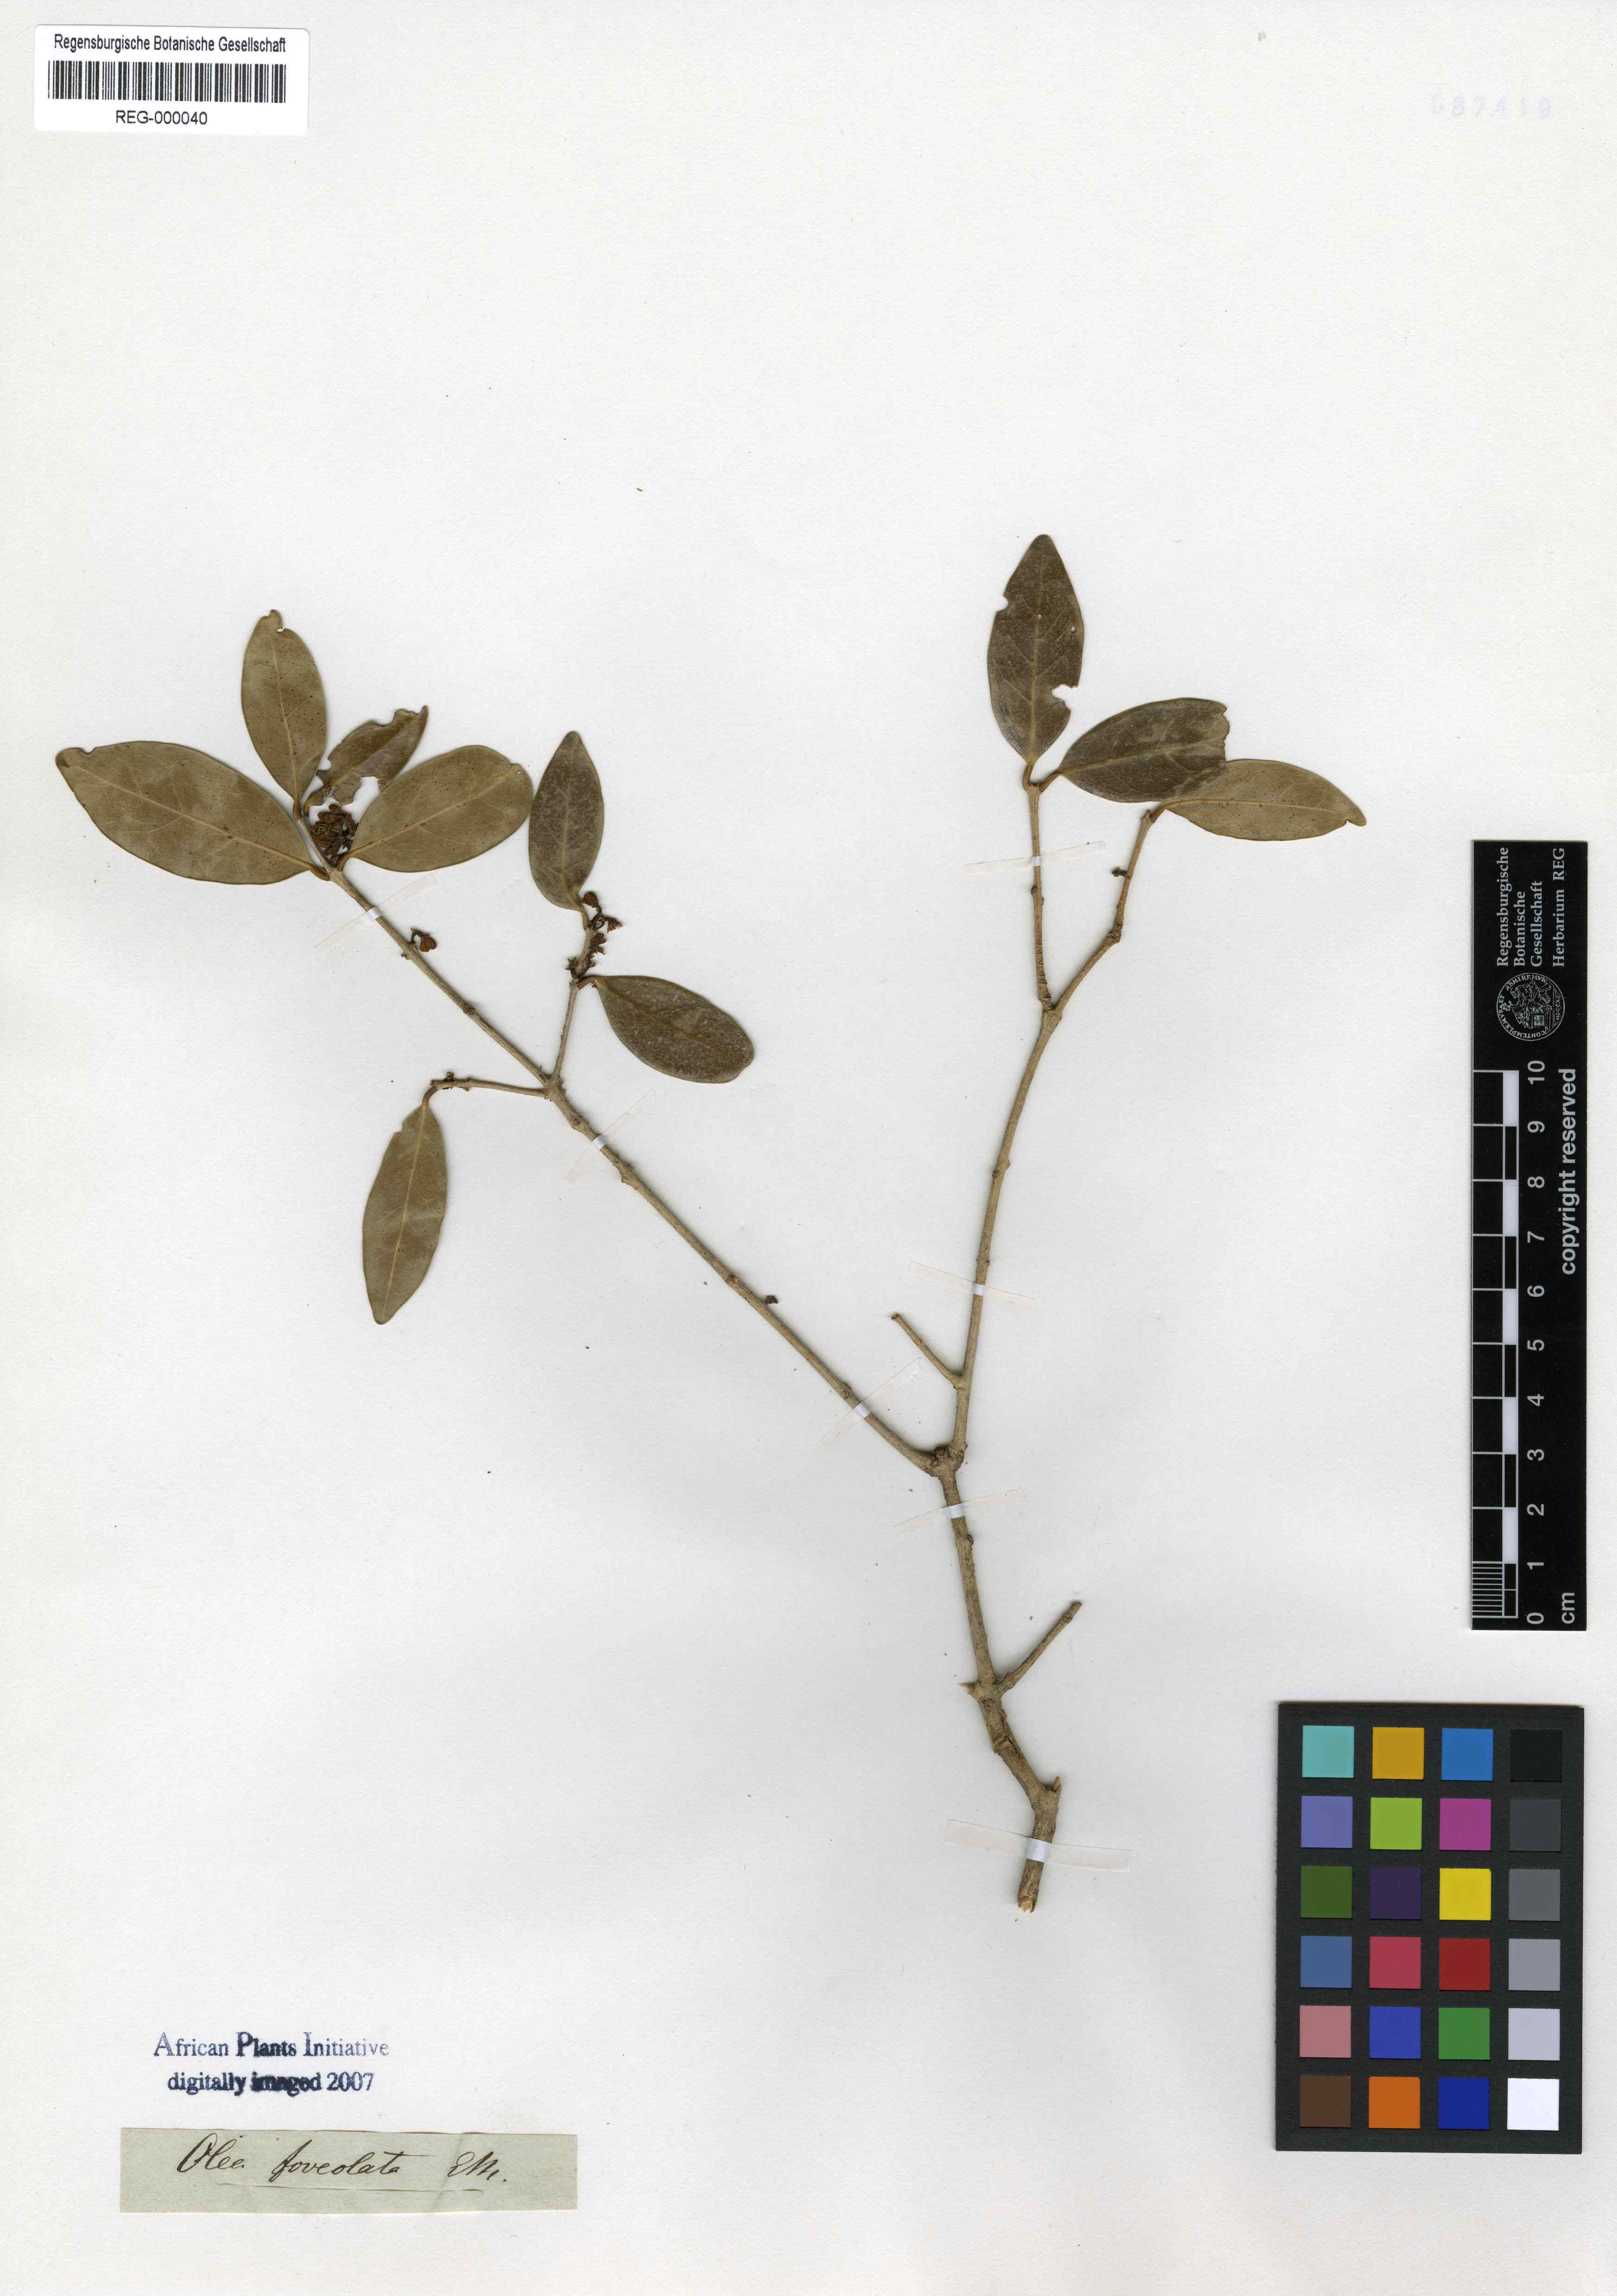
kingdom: Plantae
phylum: Tracheophyta
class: Magnoliopsida
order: Lamiales
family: Oleaceae
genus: Noronhia
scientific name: Noronhia foveolata
